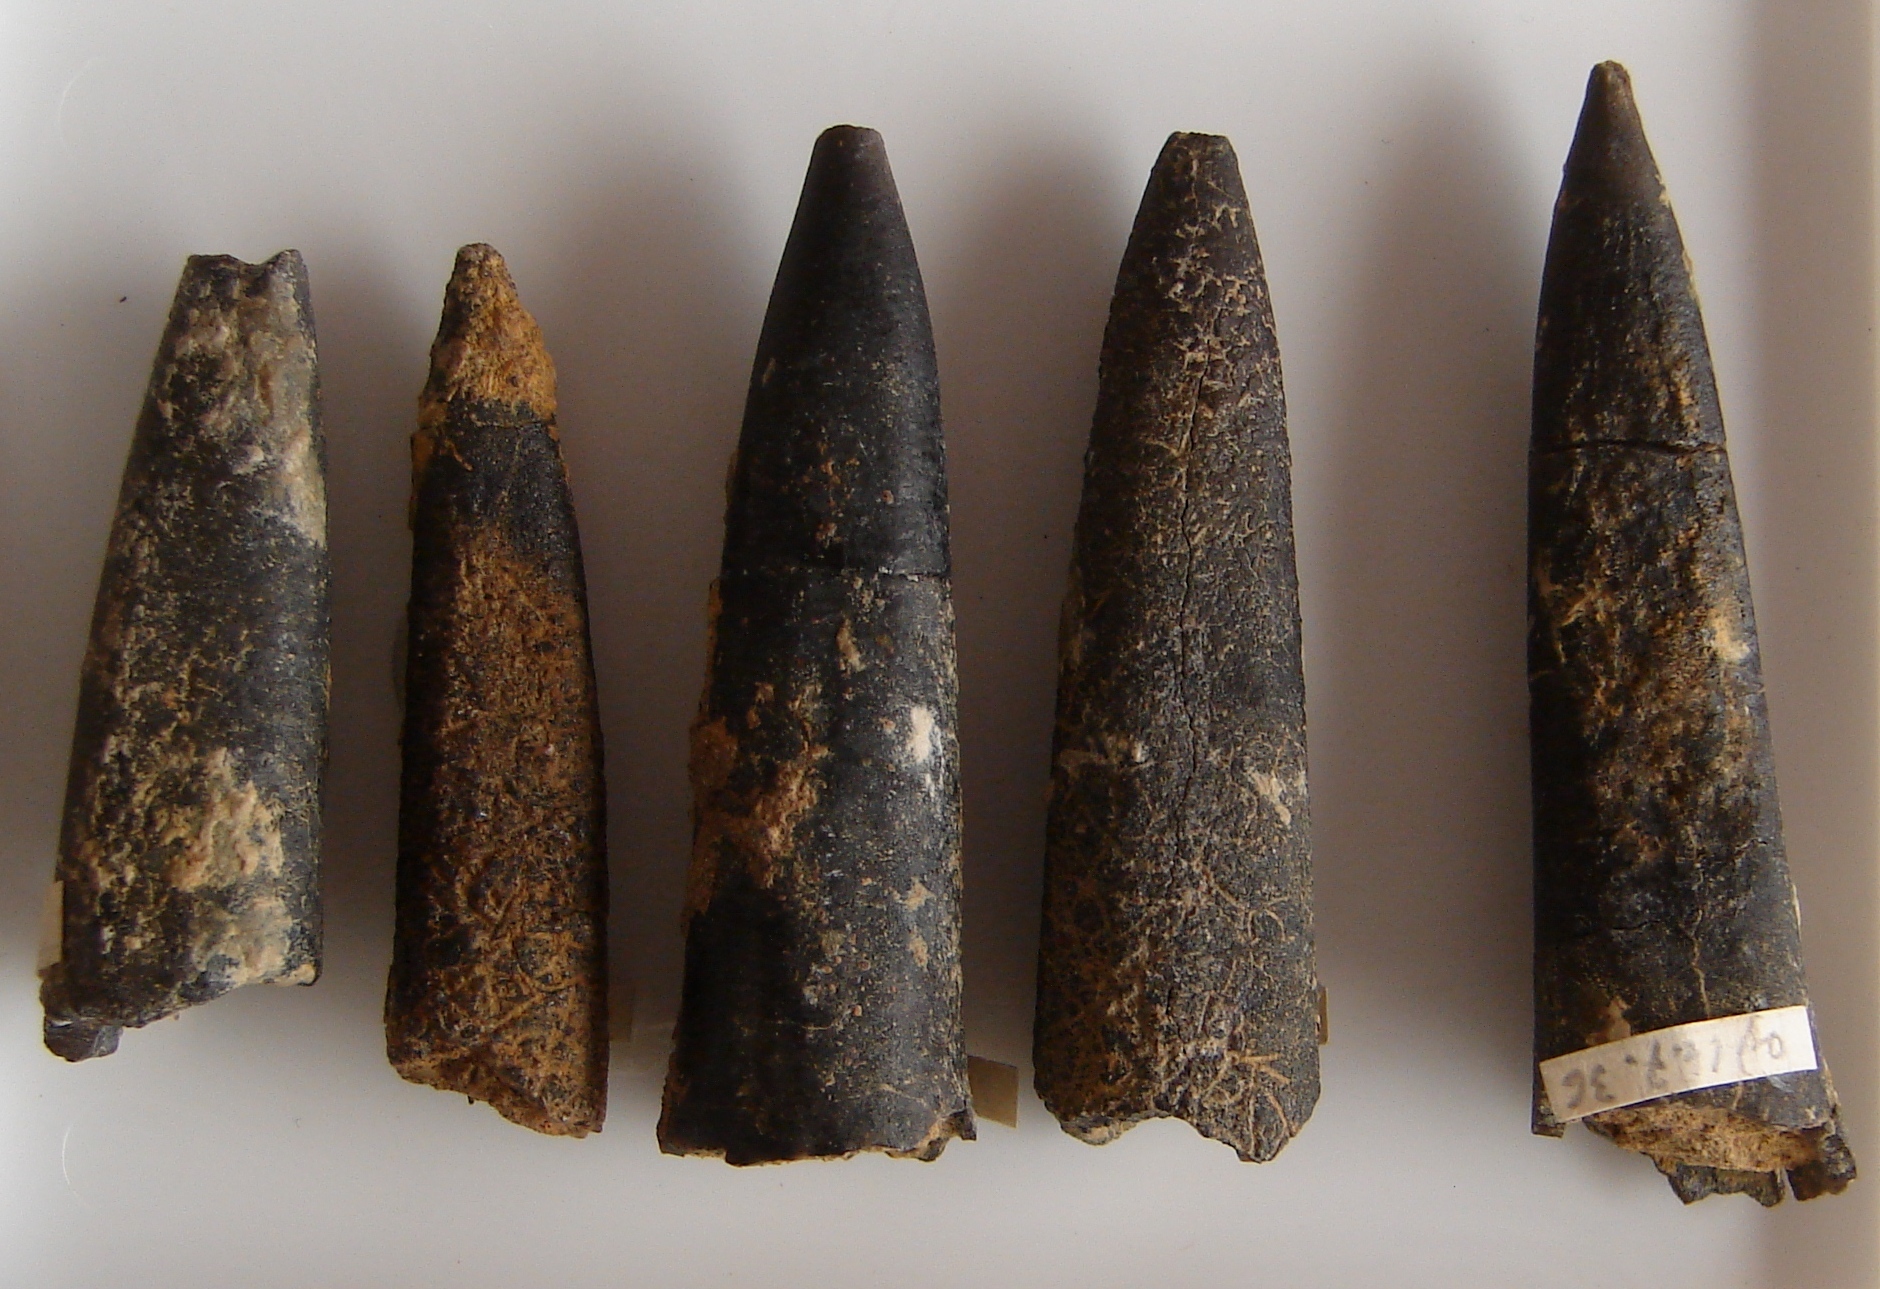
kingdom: Animalia
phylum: Mollusca
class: Cephalopoda
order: Belemnitida
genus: Nannobelus
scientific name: Nannobelus
